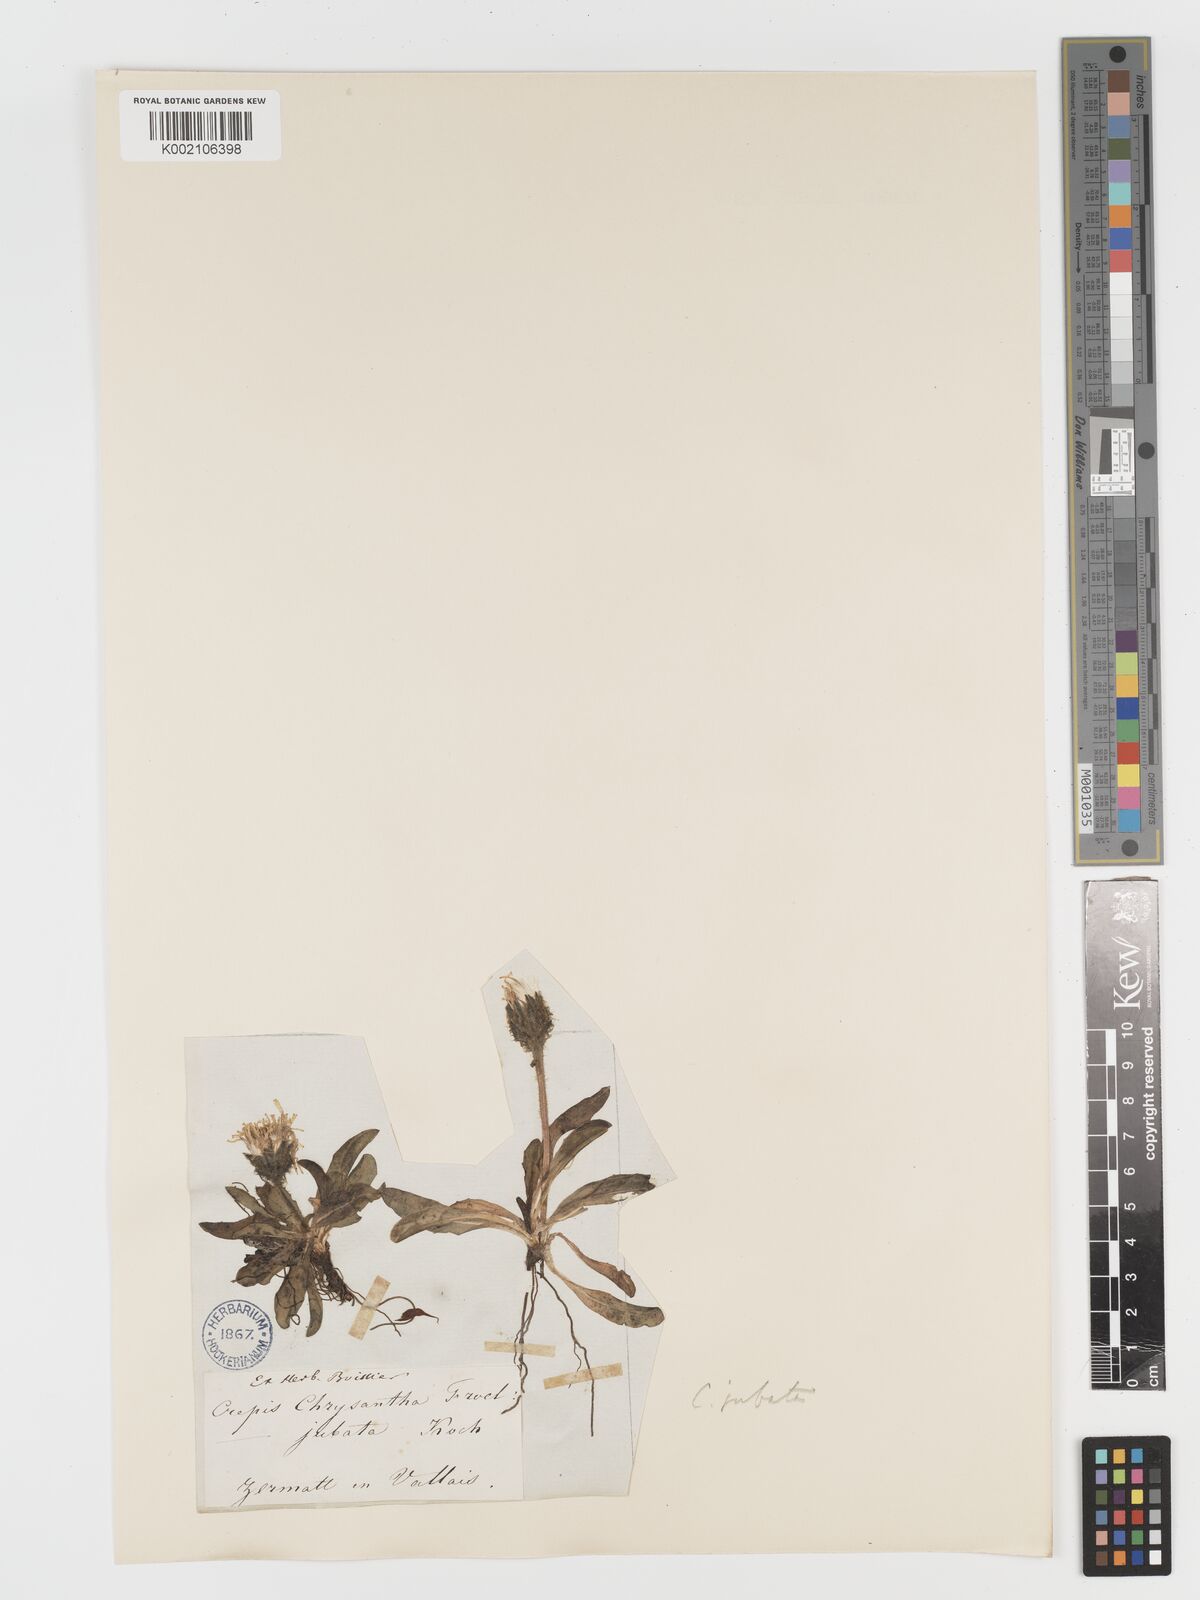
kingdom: Plantae
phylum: Tracheophyta
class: Magnoliopsida
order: Asterales
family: Asteraceae
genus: Crepis
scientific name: Crepis rhaetica
